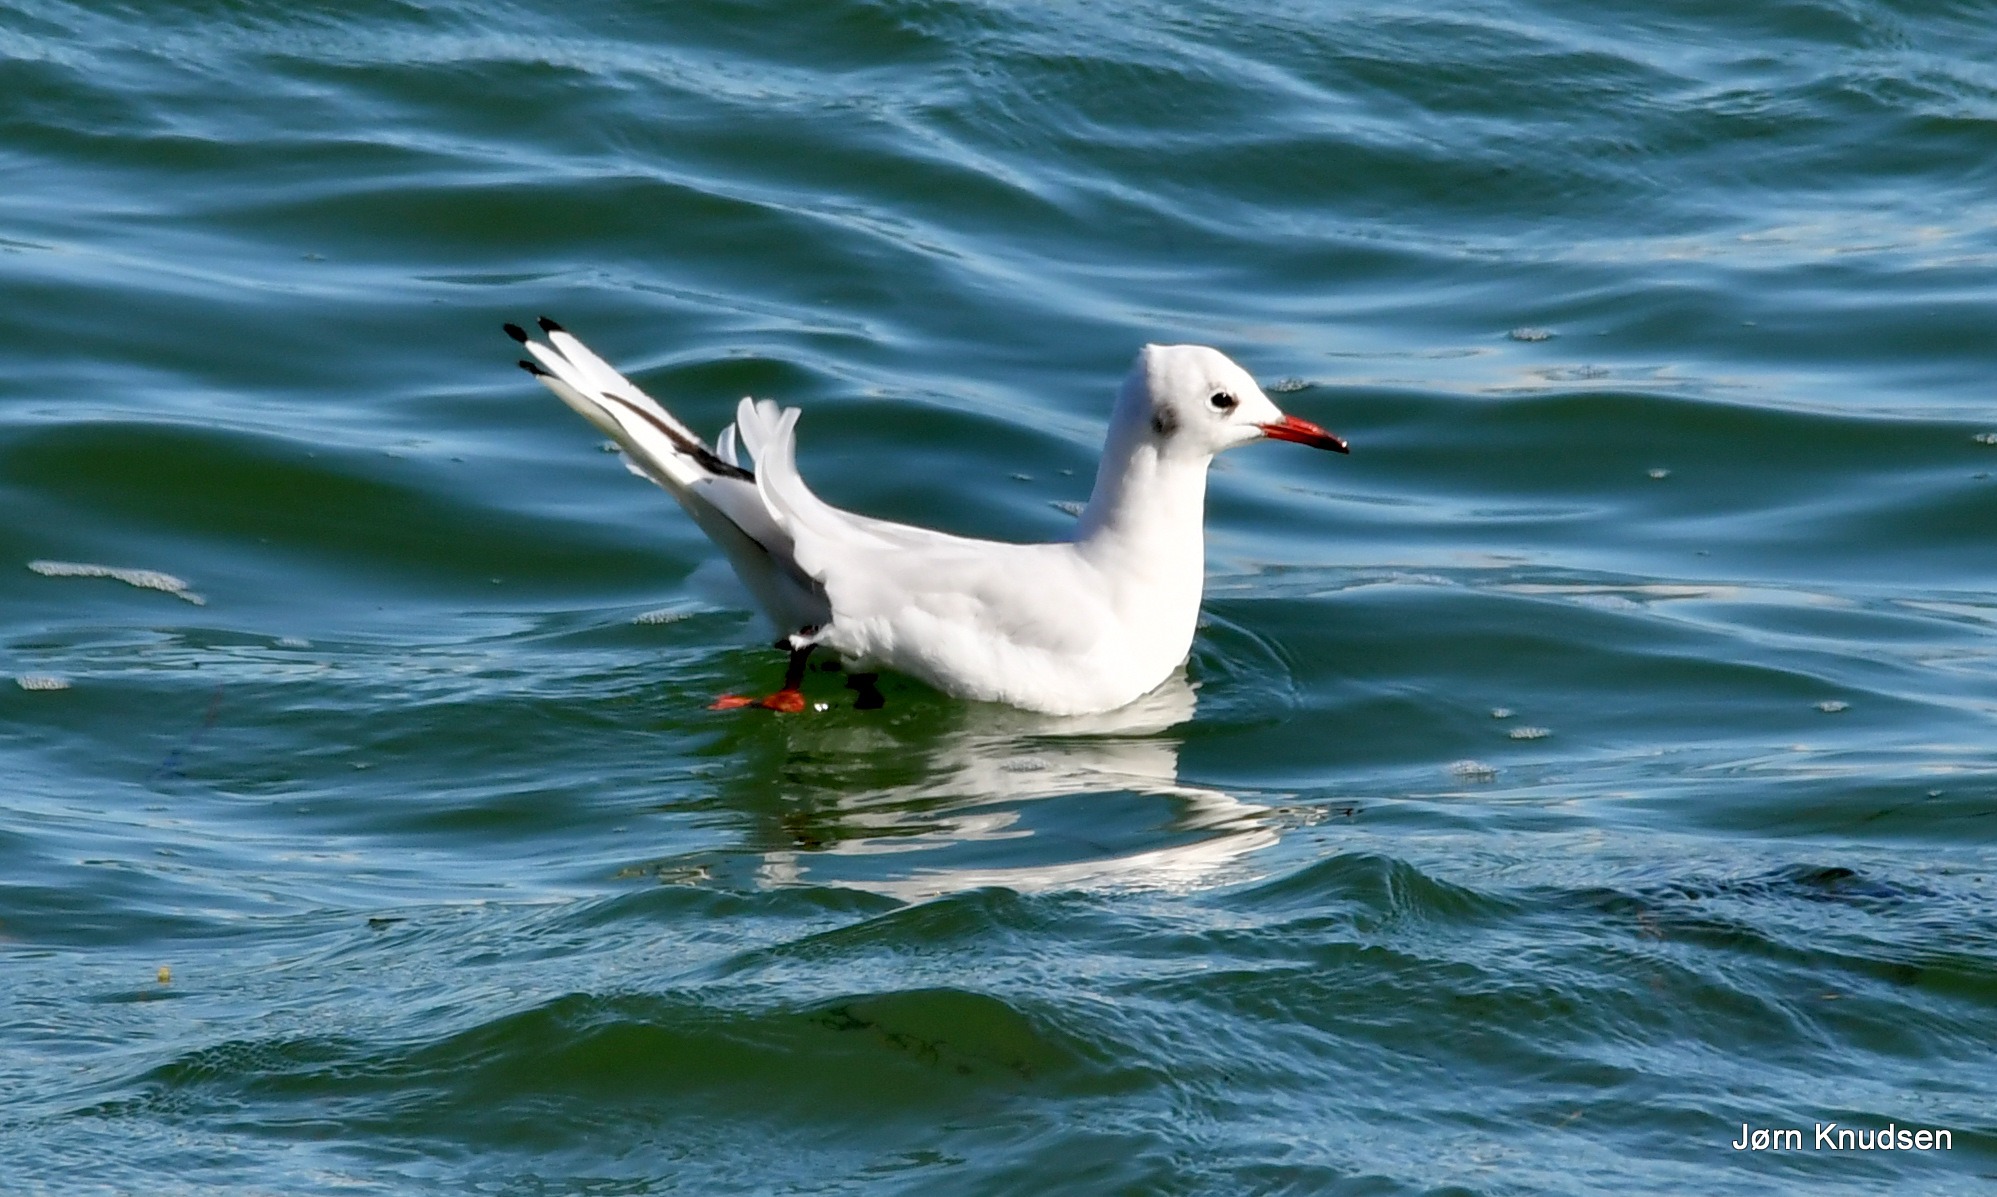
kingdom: Animalia
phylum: Chordata
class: Aves
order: Charadriiformes
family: Laridae
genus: Chroicocephalus
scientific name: Chroicocephalus ridibundus
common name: Hættemåge
